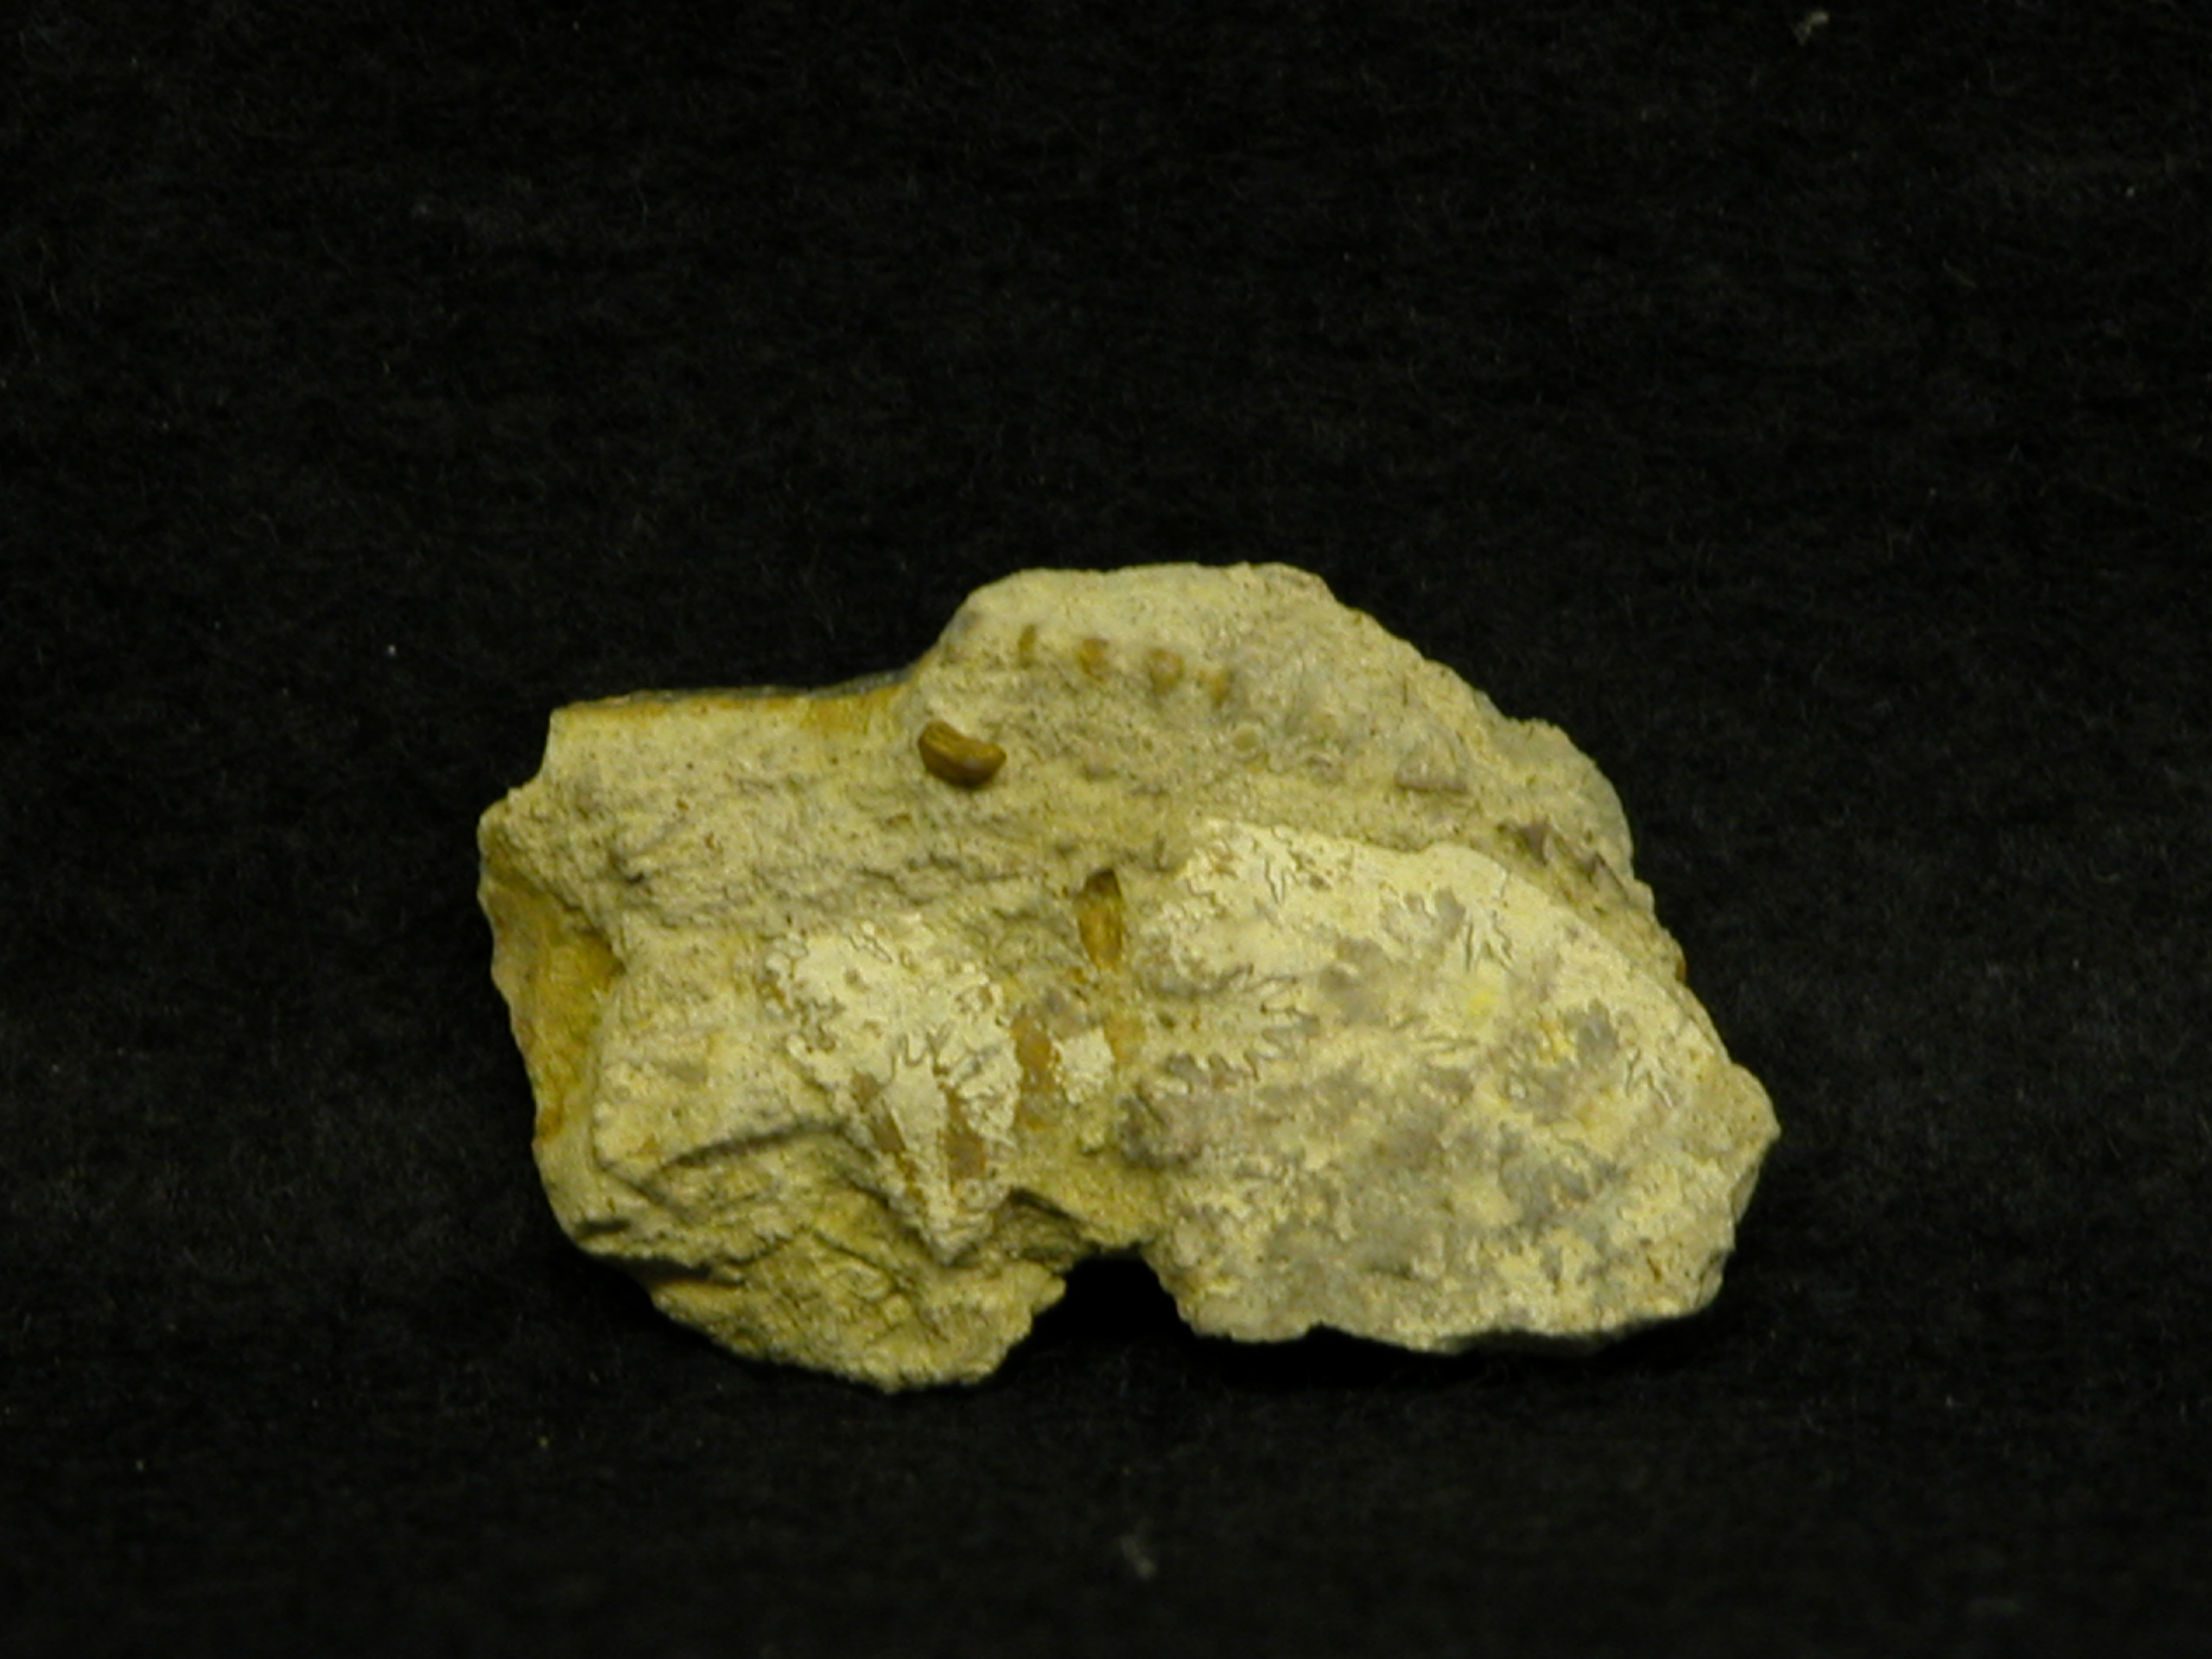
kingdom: Animalia
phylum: Mollusca
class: Cephalopoda
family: Liparoceratidae
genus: Amblycoceras
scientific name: Amblycoceras
